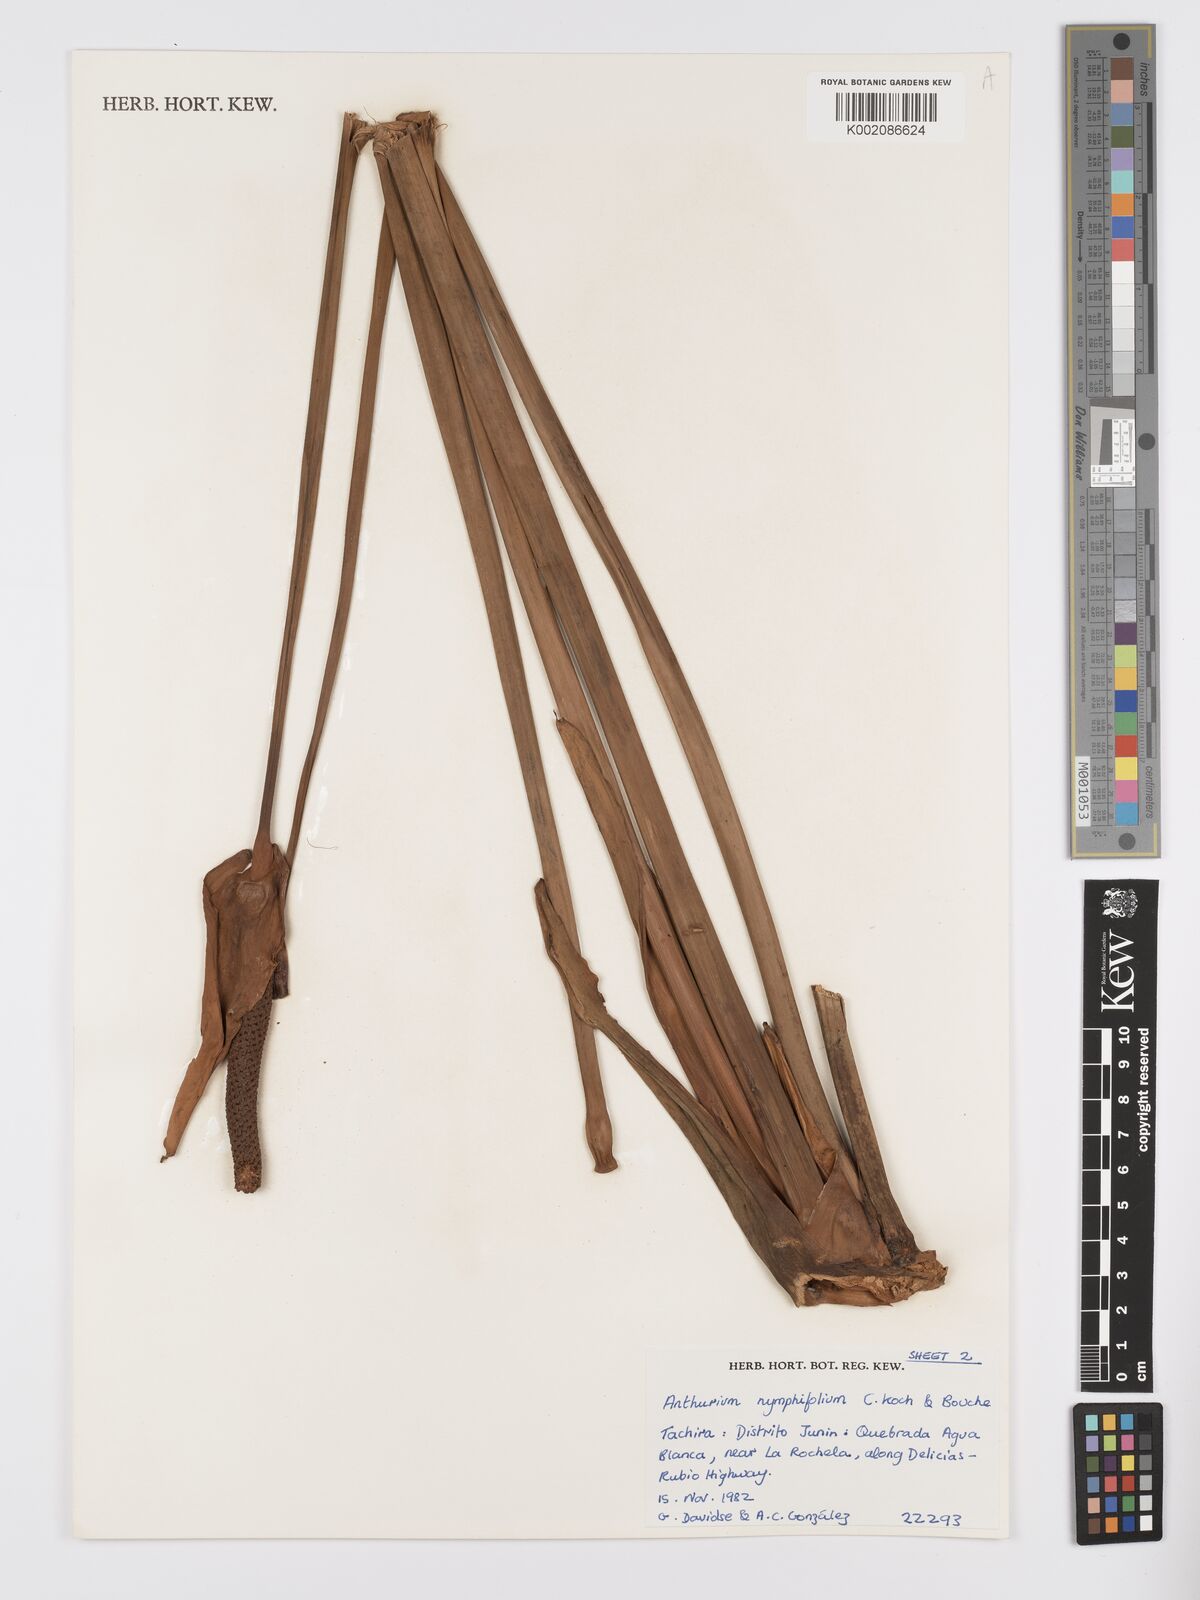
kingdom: Plantae
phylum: Tracheophyta
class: Liliopsida
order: Alismatales
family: Araceae
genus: Anthurium
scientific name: Anthurium nymphaeifolium
